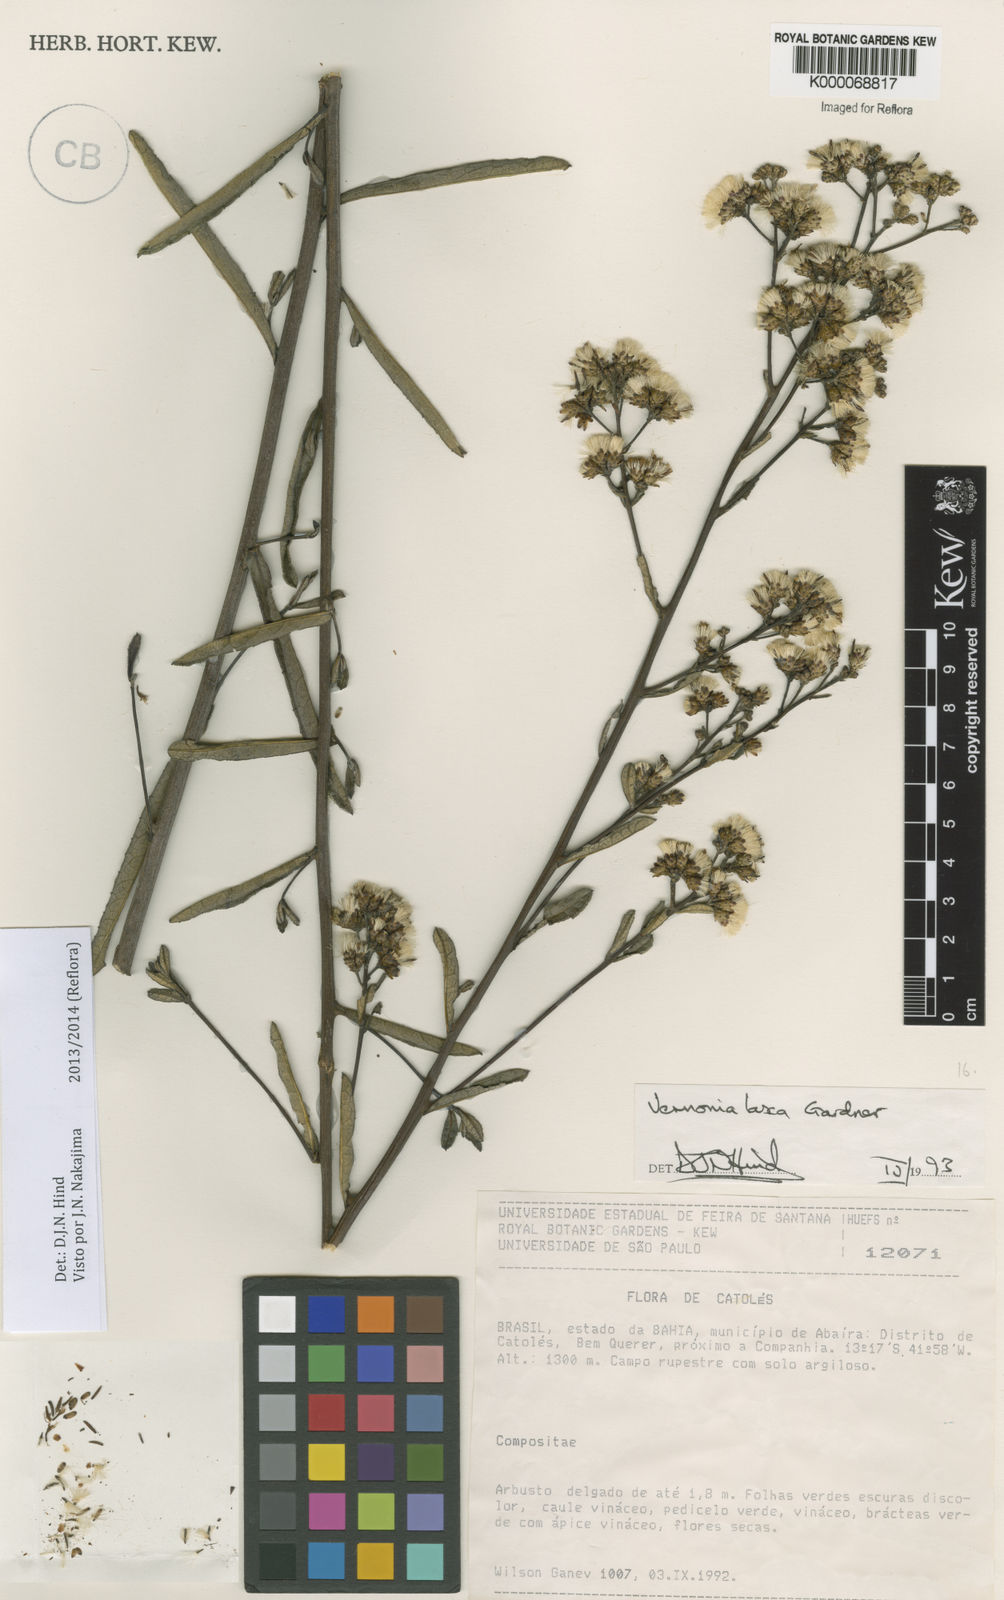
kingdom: Plantae
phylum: Tracheophyta
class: Magnoliopsida
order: Asterales
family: Asteraceae
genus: Vernonanthura
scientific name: Vernonanthura laxa
